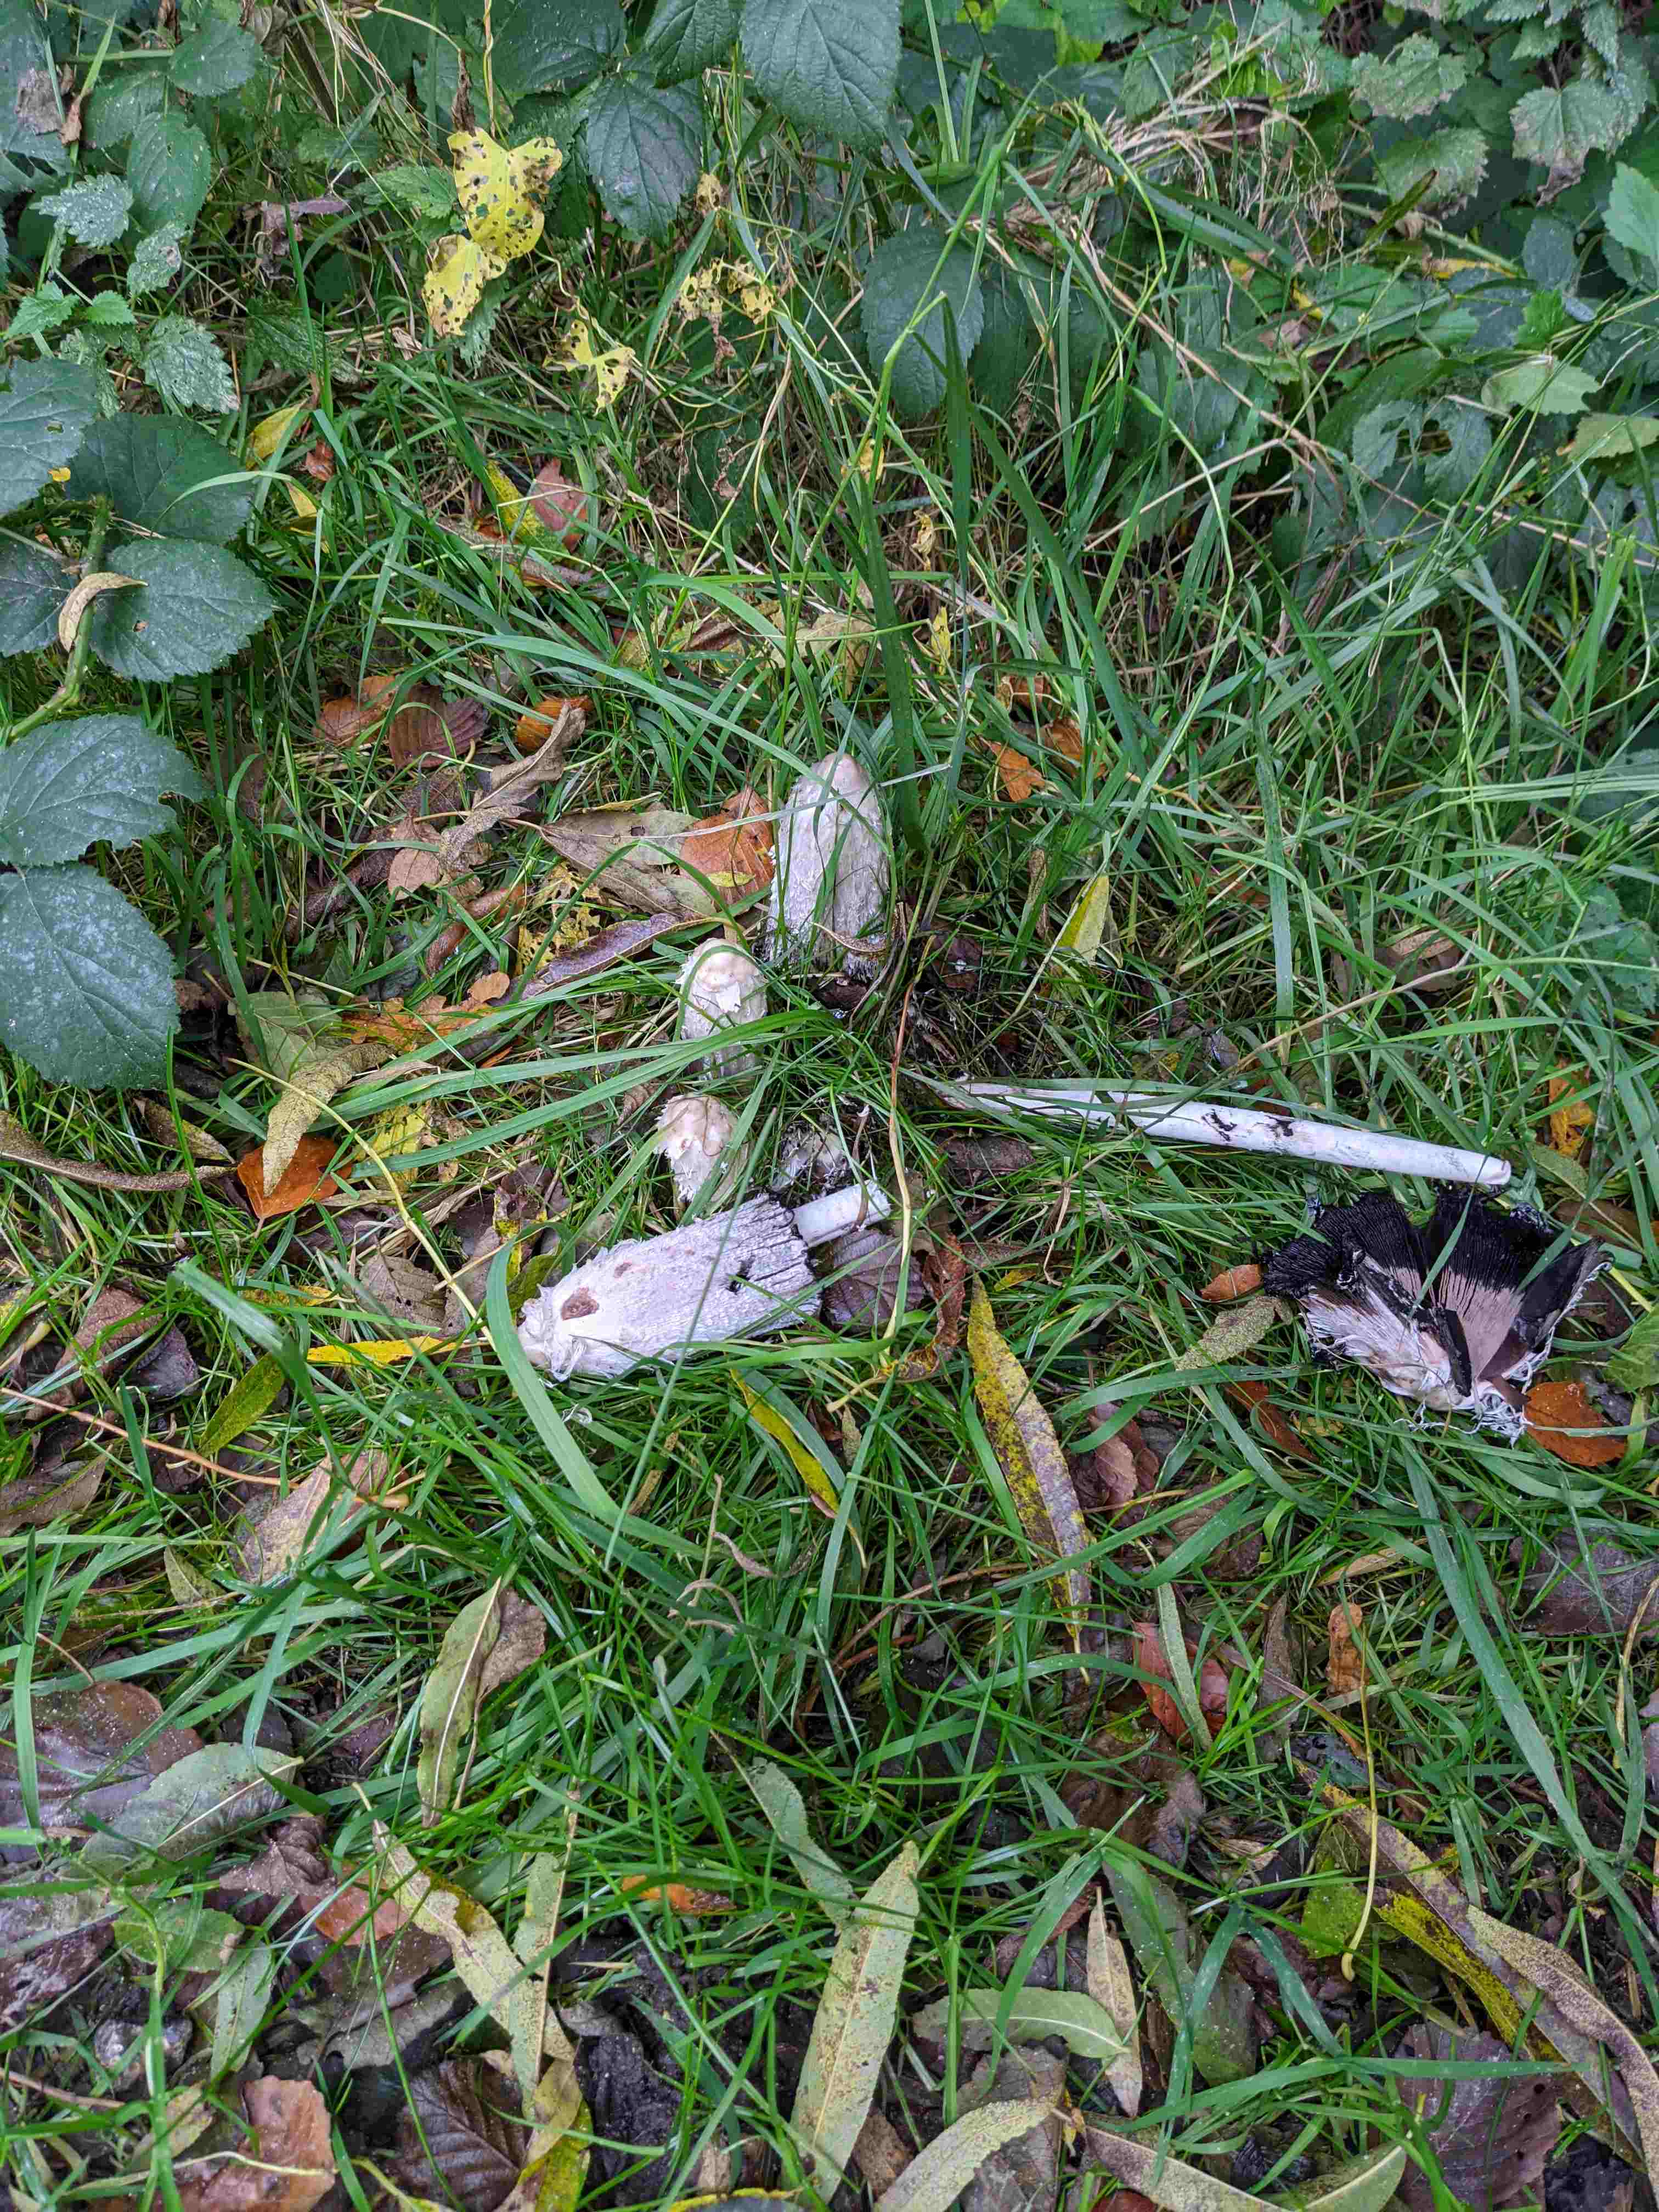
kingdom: Fungi
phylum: Basidiomycota
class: Agaricomycetes
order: Agaricales
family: Agaricaceae
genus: Coprinus
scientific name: Coprinus comatus
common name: stor parykhat
